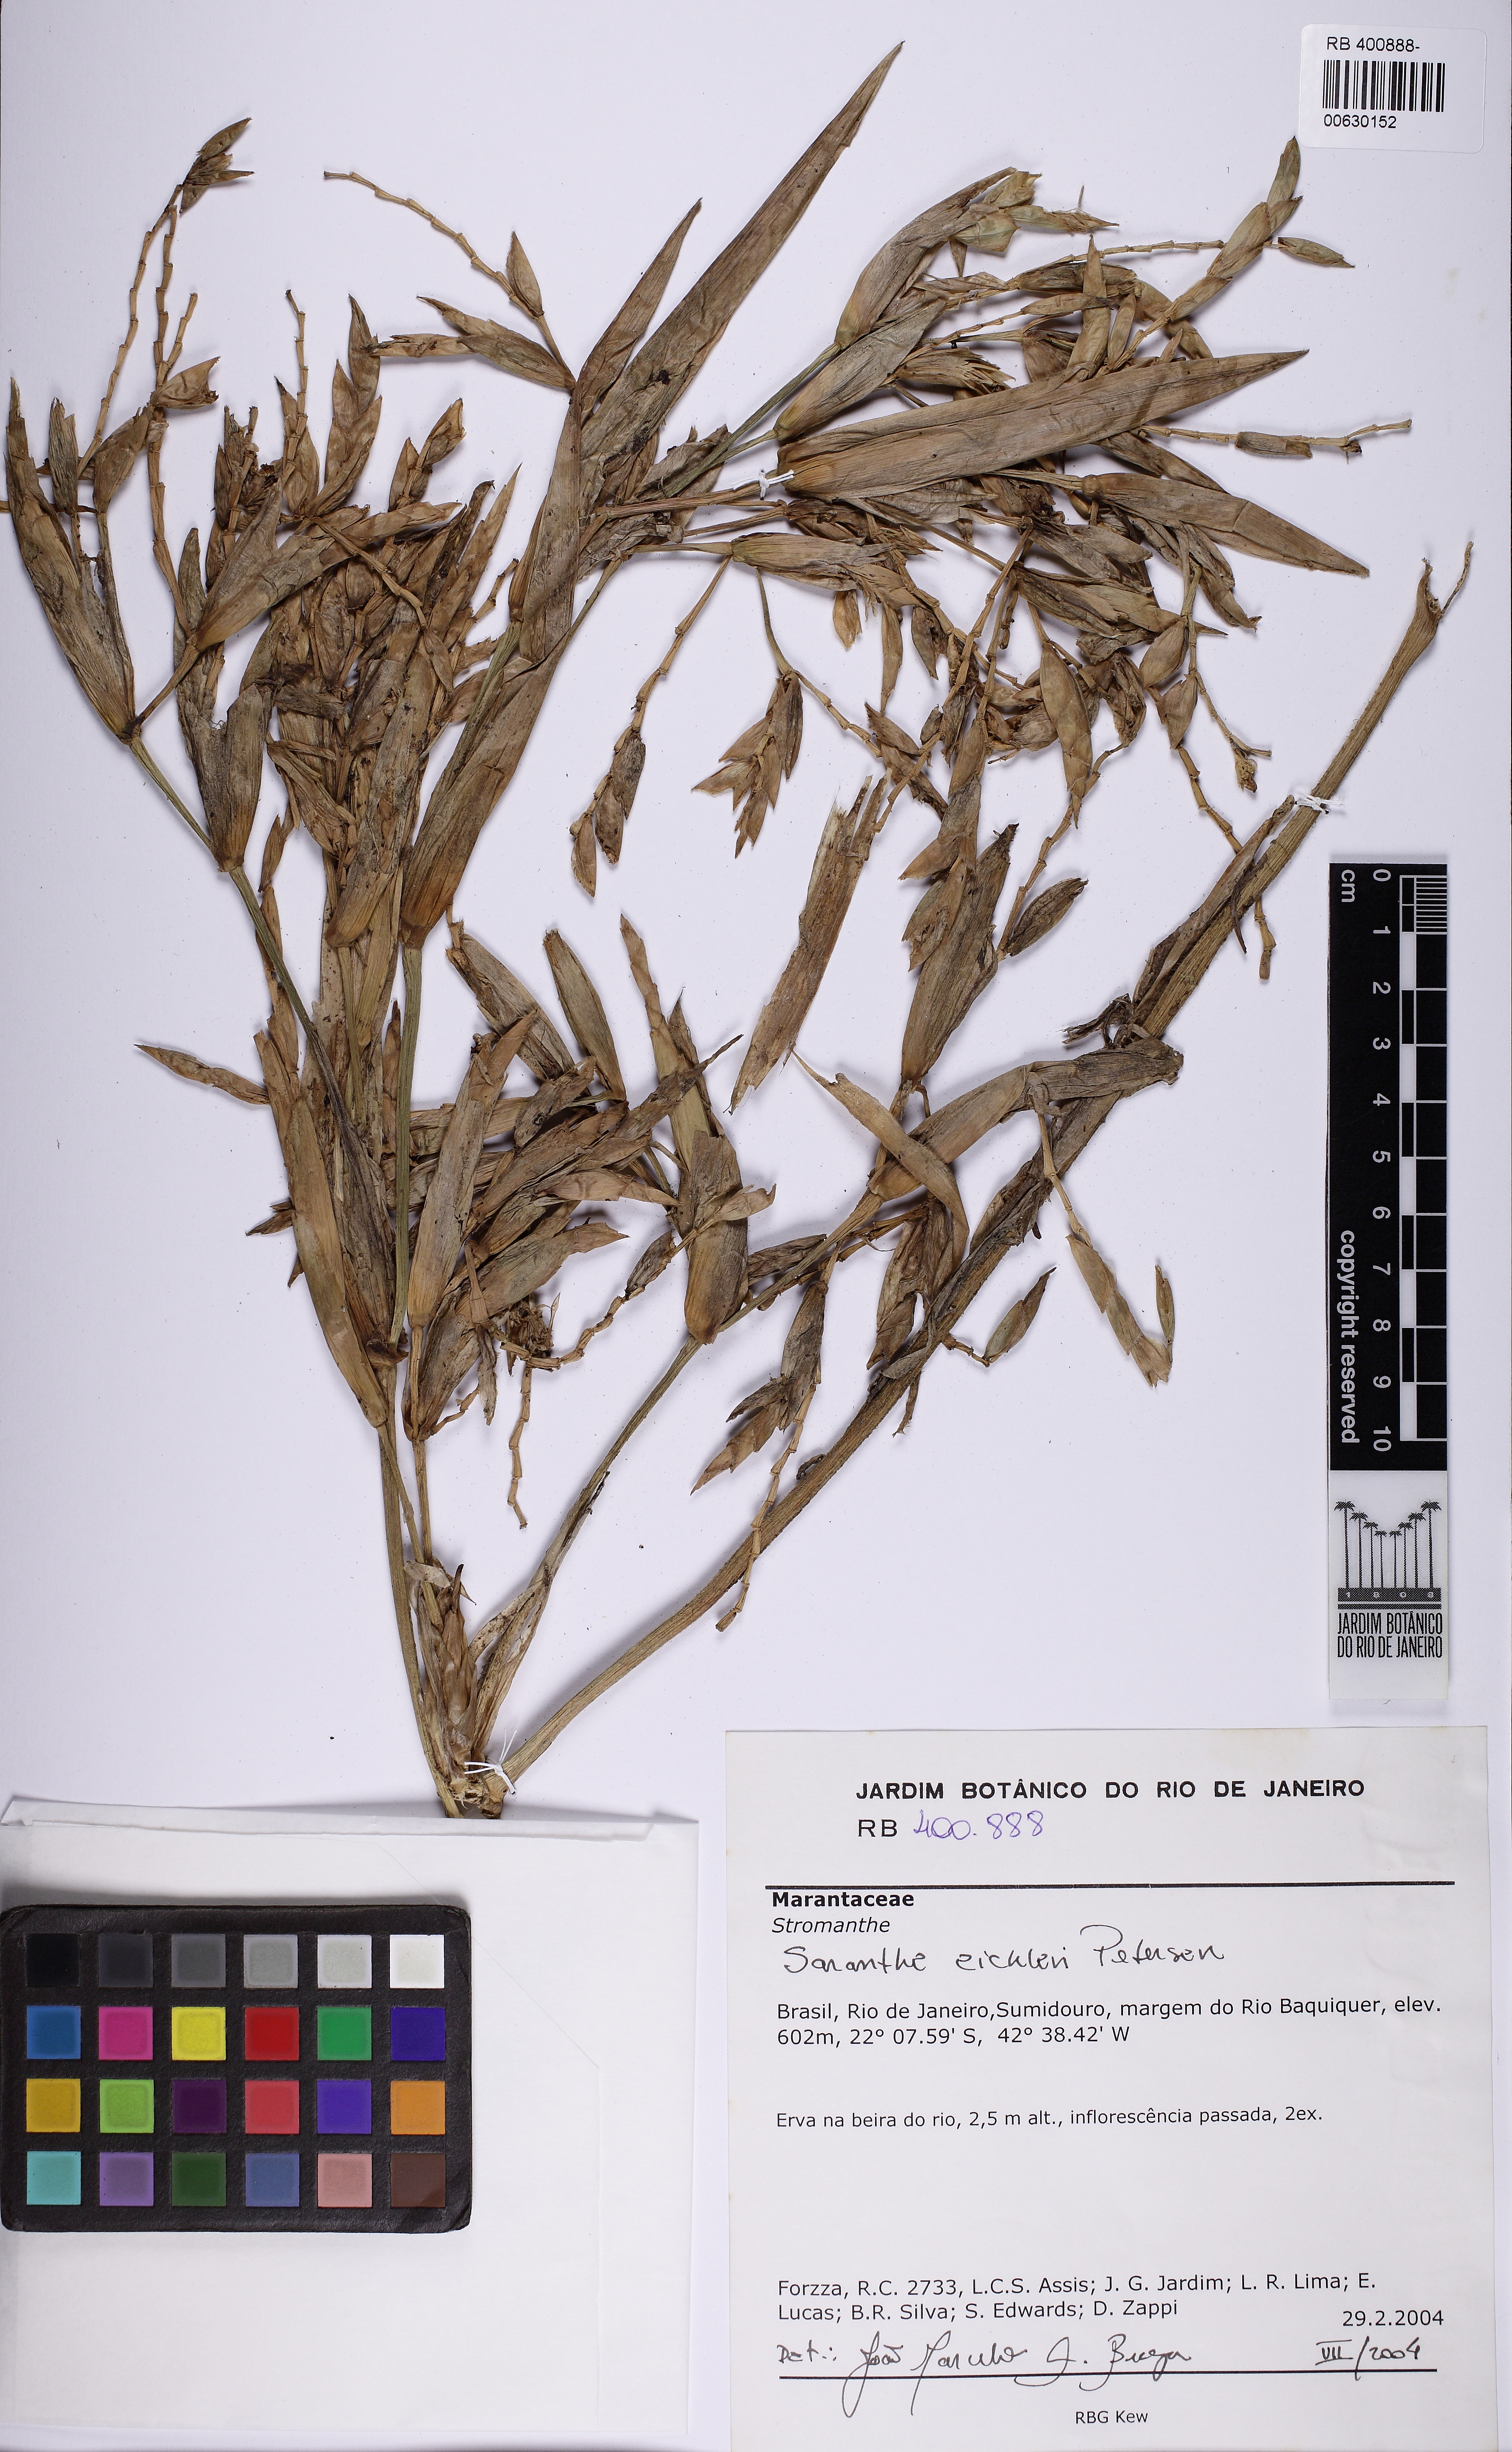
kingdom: Plantae
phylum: Tracheophyta
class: Liliopsida
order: Zingiberales
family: Marantaceae
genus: Saranthe
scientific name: Saranthe eichleri
